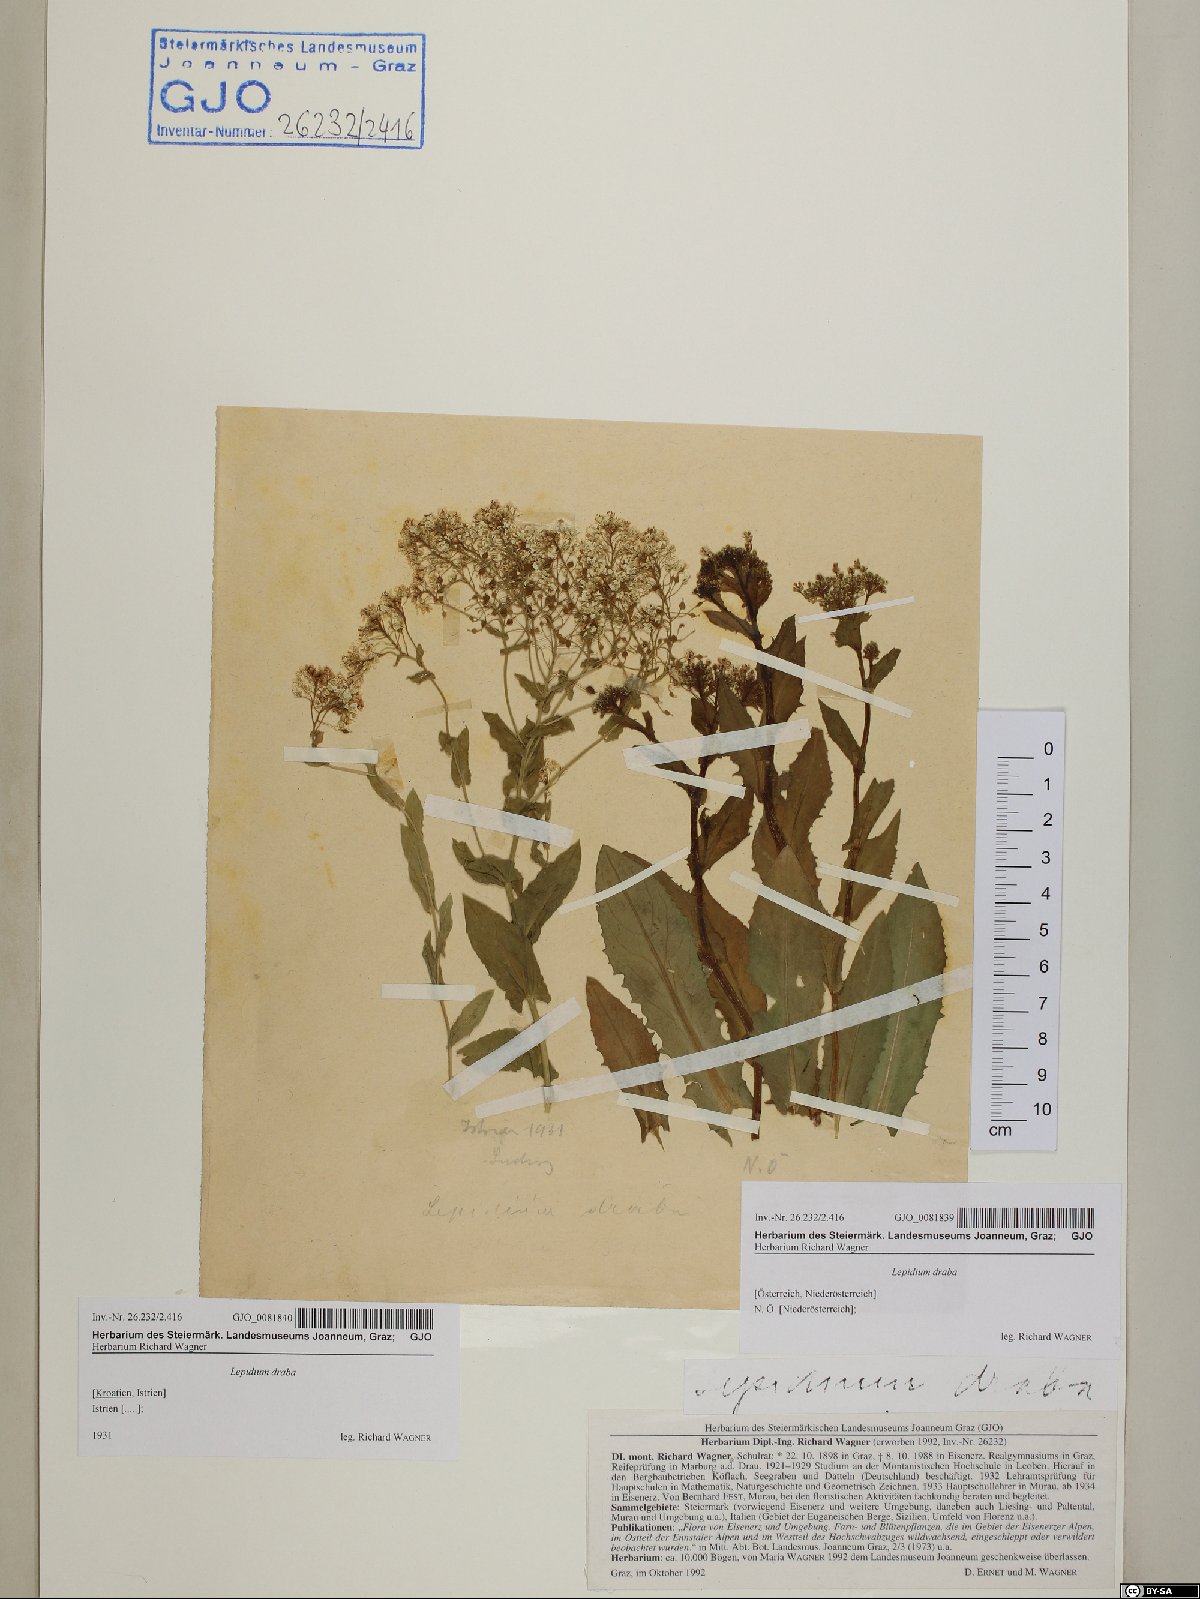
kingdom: Plantae
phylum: Tracheophyta
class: Magnoliopsida
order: Brassicales
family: Brassicaceae
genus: Lepidium
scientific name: Lepidium draba
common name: Hoary cress
